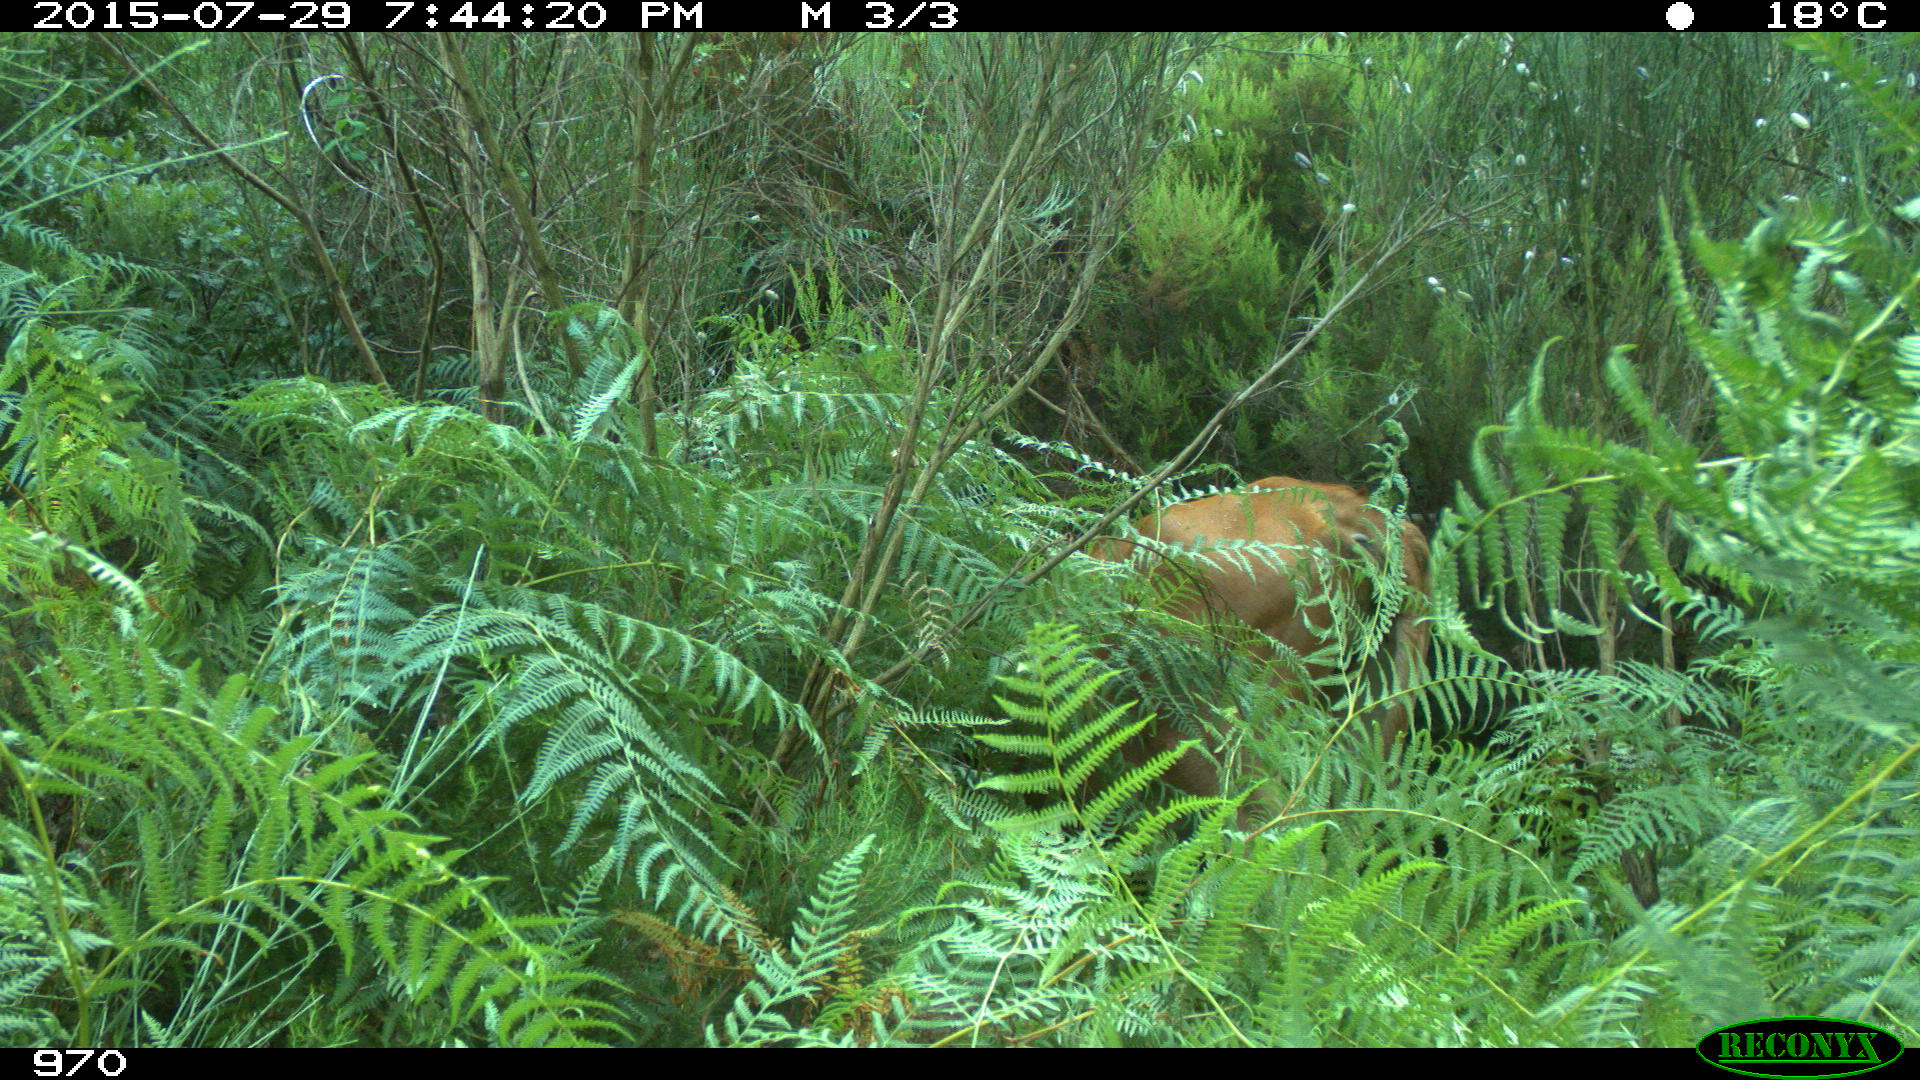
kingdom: Animalia
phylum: Chordata
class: Mammalia
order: Artiodactyla
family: Bovidae
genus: Bos
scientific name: Bos taurus
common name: Domesticated cattle
